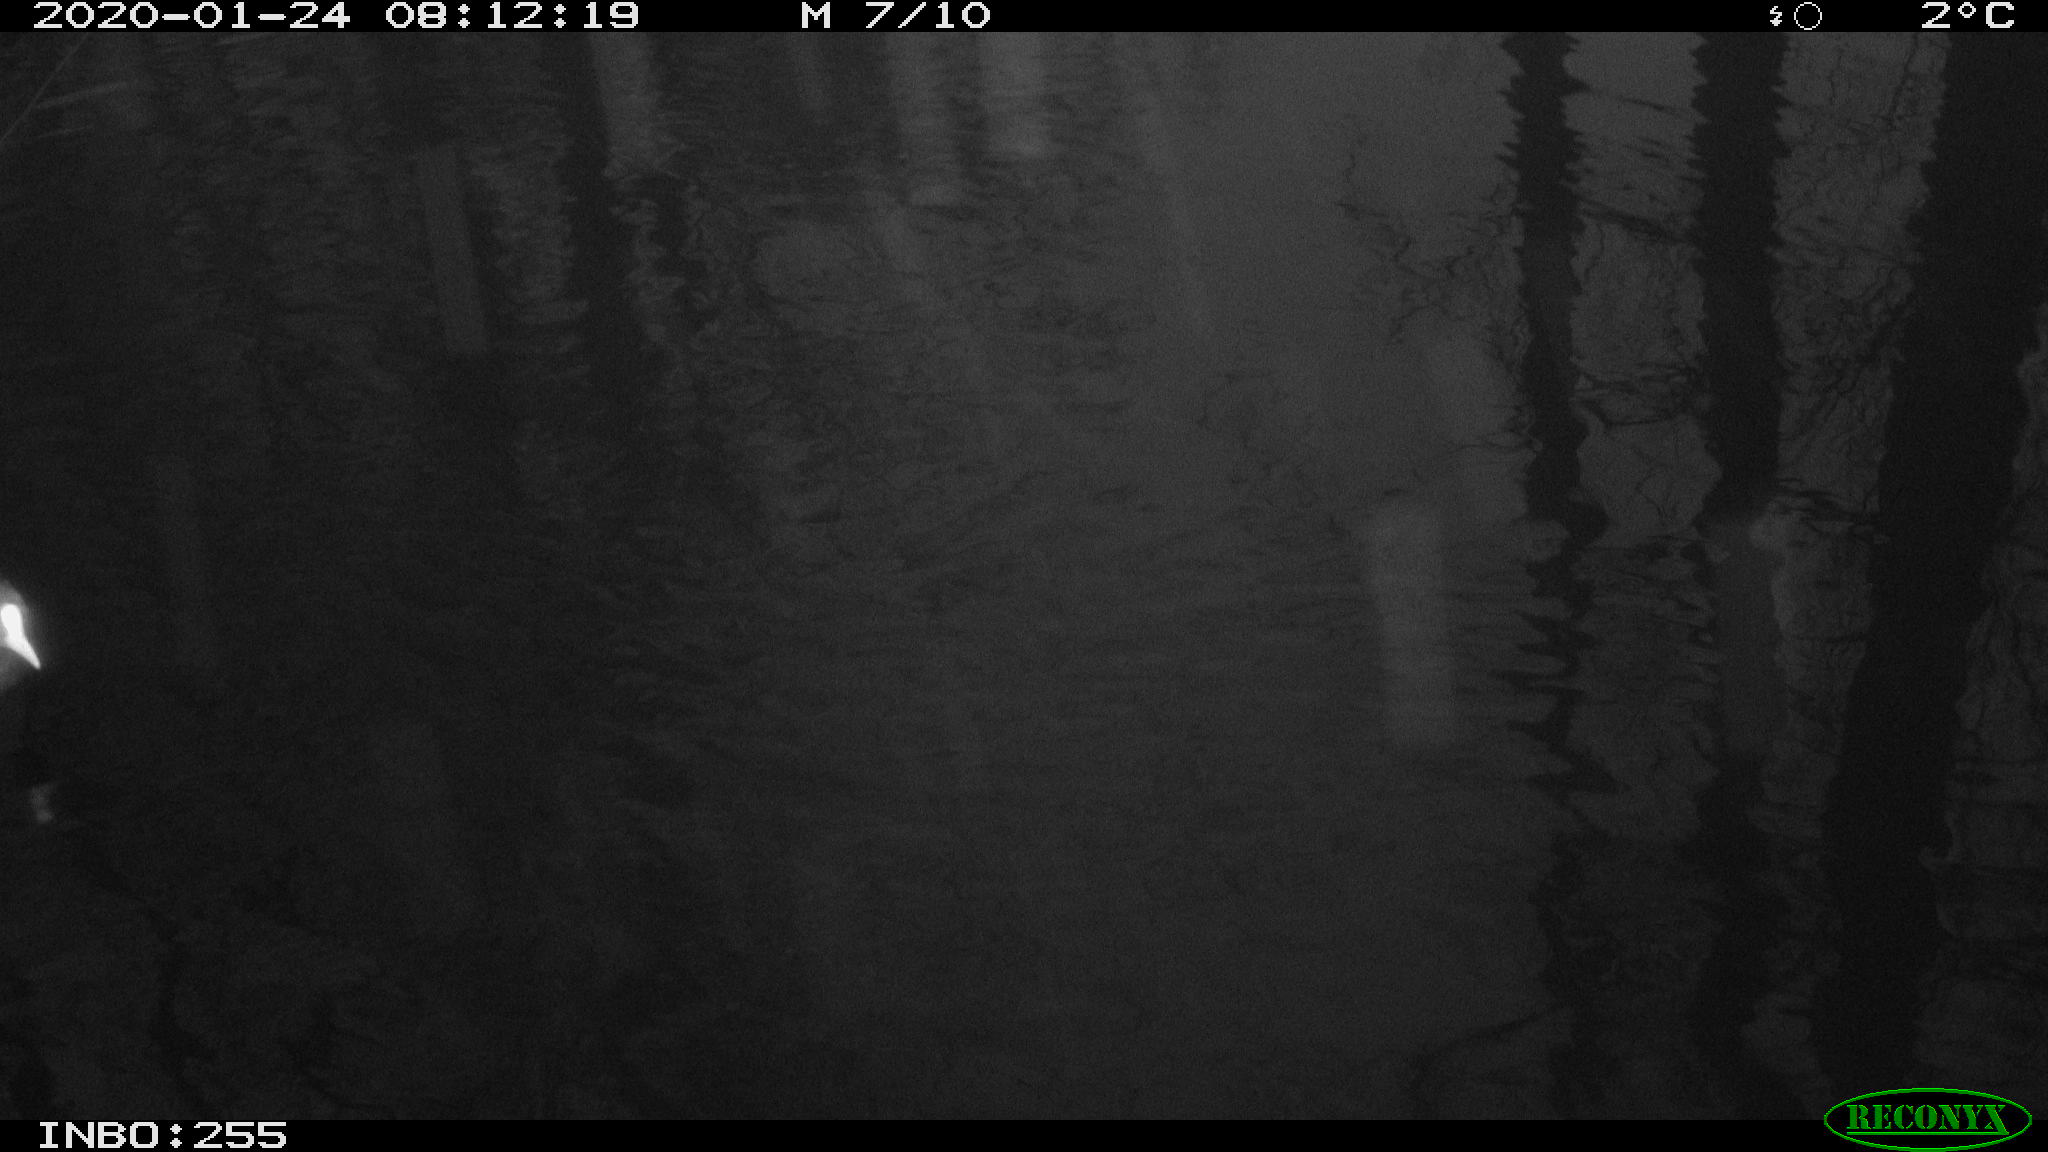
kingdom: Animalia
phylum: Chordata
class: Aves
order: Gruiformes
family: Rallidae
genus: Gallinula
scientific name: Gallinula chloropus
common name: Common moorhen
